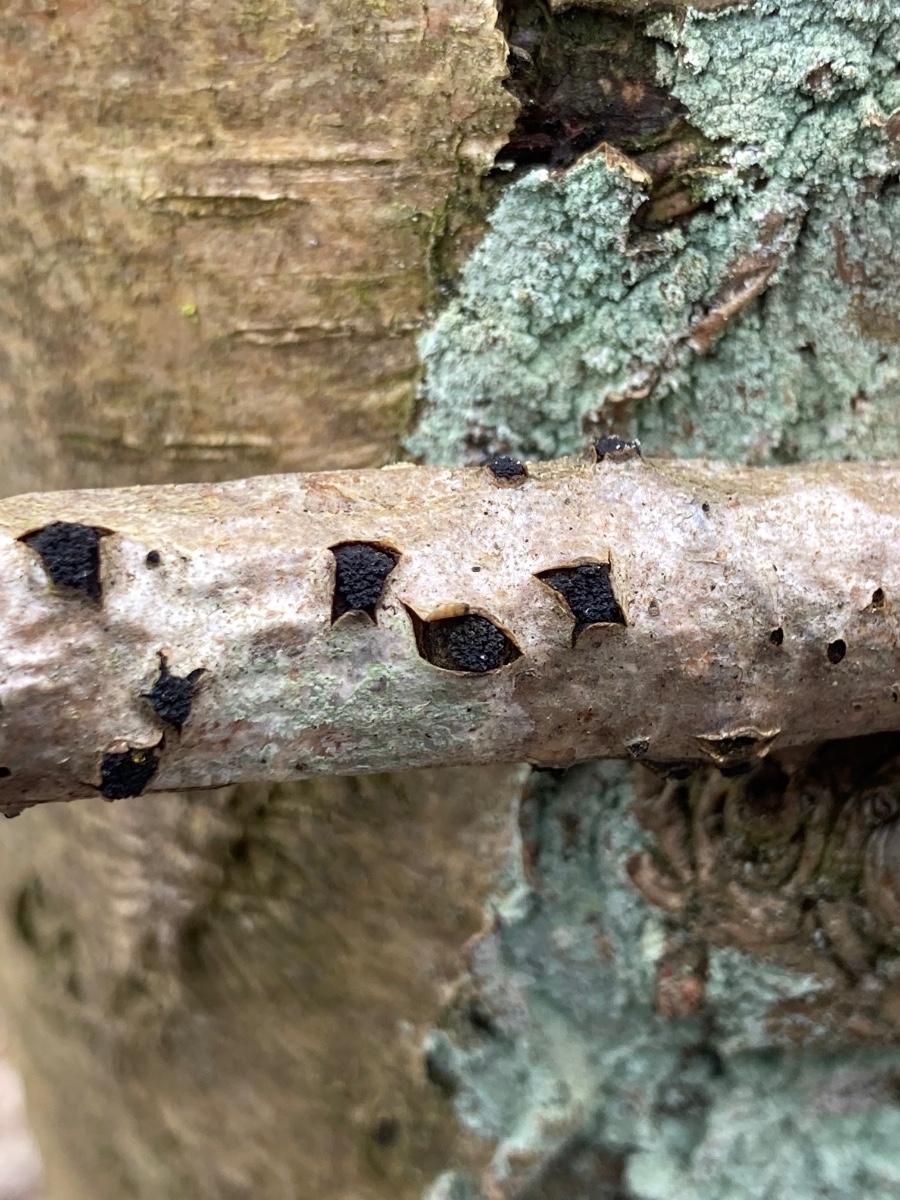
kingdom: Fungi
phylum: Ascomycota
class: Sordariomycetes
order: Xylariales
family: Diatrypaceae
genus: Eutypella
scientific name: Eutypella sorbi
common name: rønne-kulskorpe
